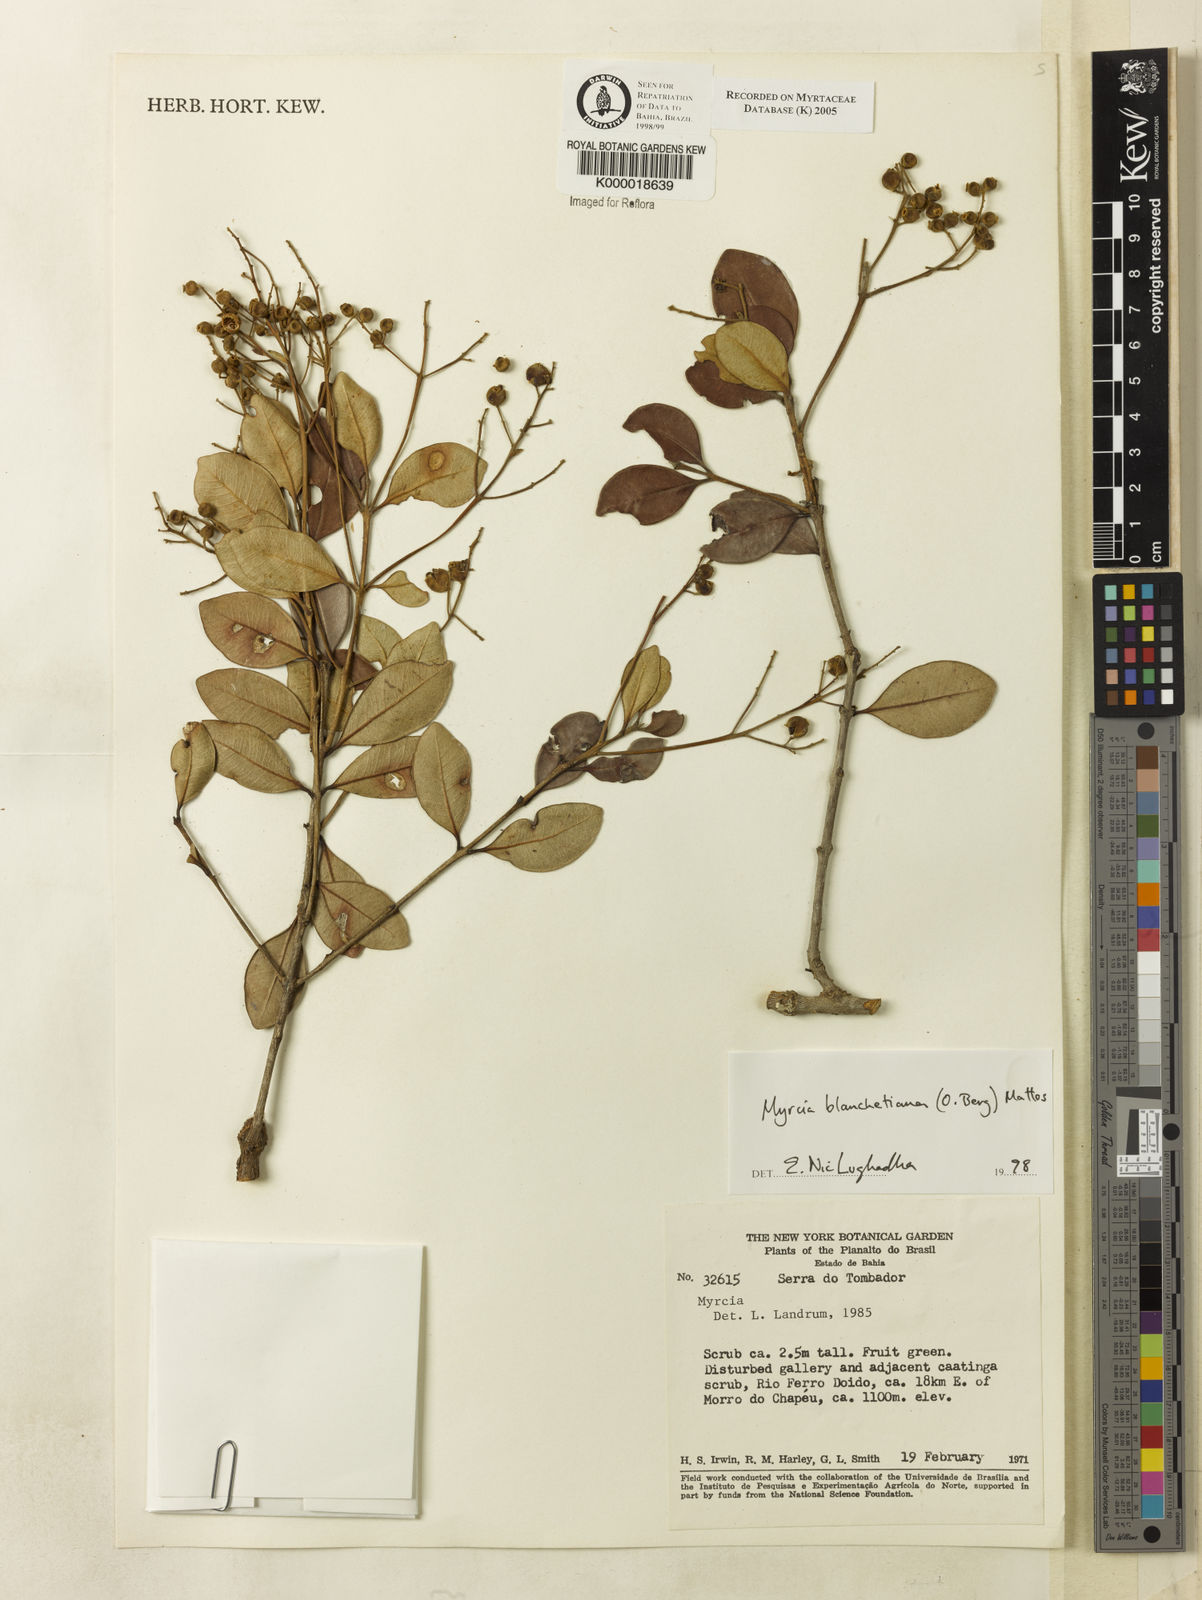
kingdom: Plantae
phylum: Tracheophyta
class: Magnoliopsida
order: Myrtales
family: Myrtaceae
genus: Myrcia
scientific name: Myrcia blanchetiana
